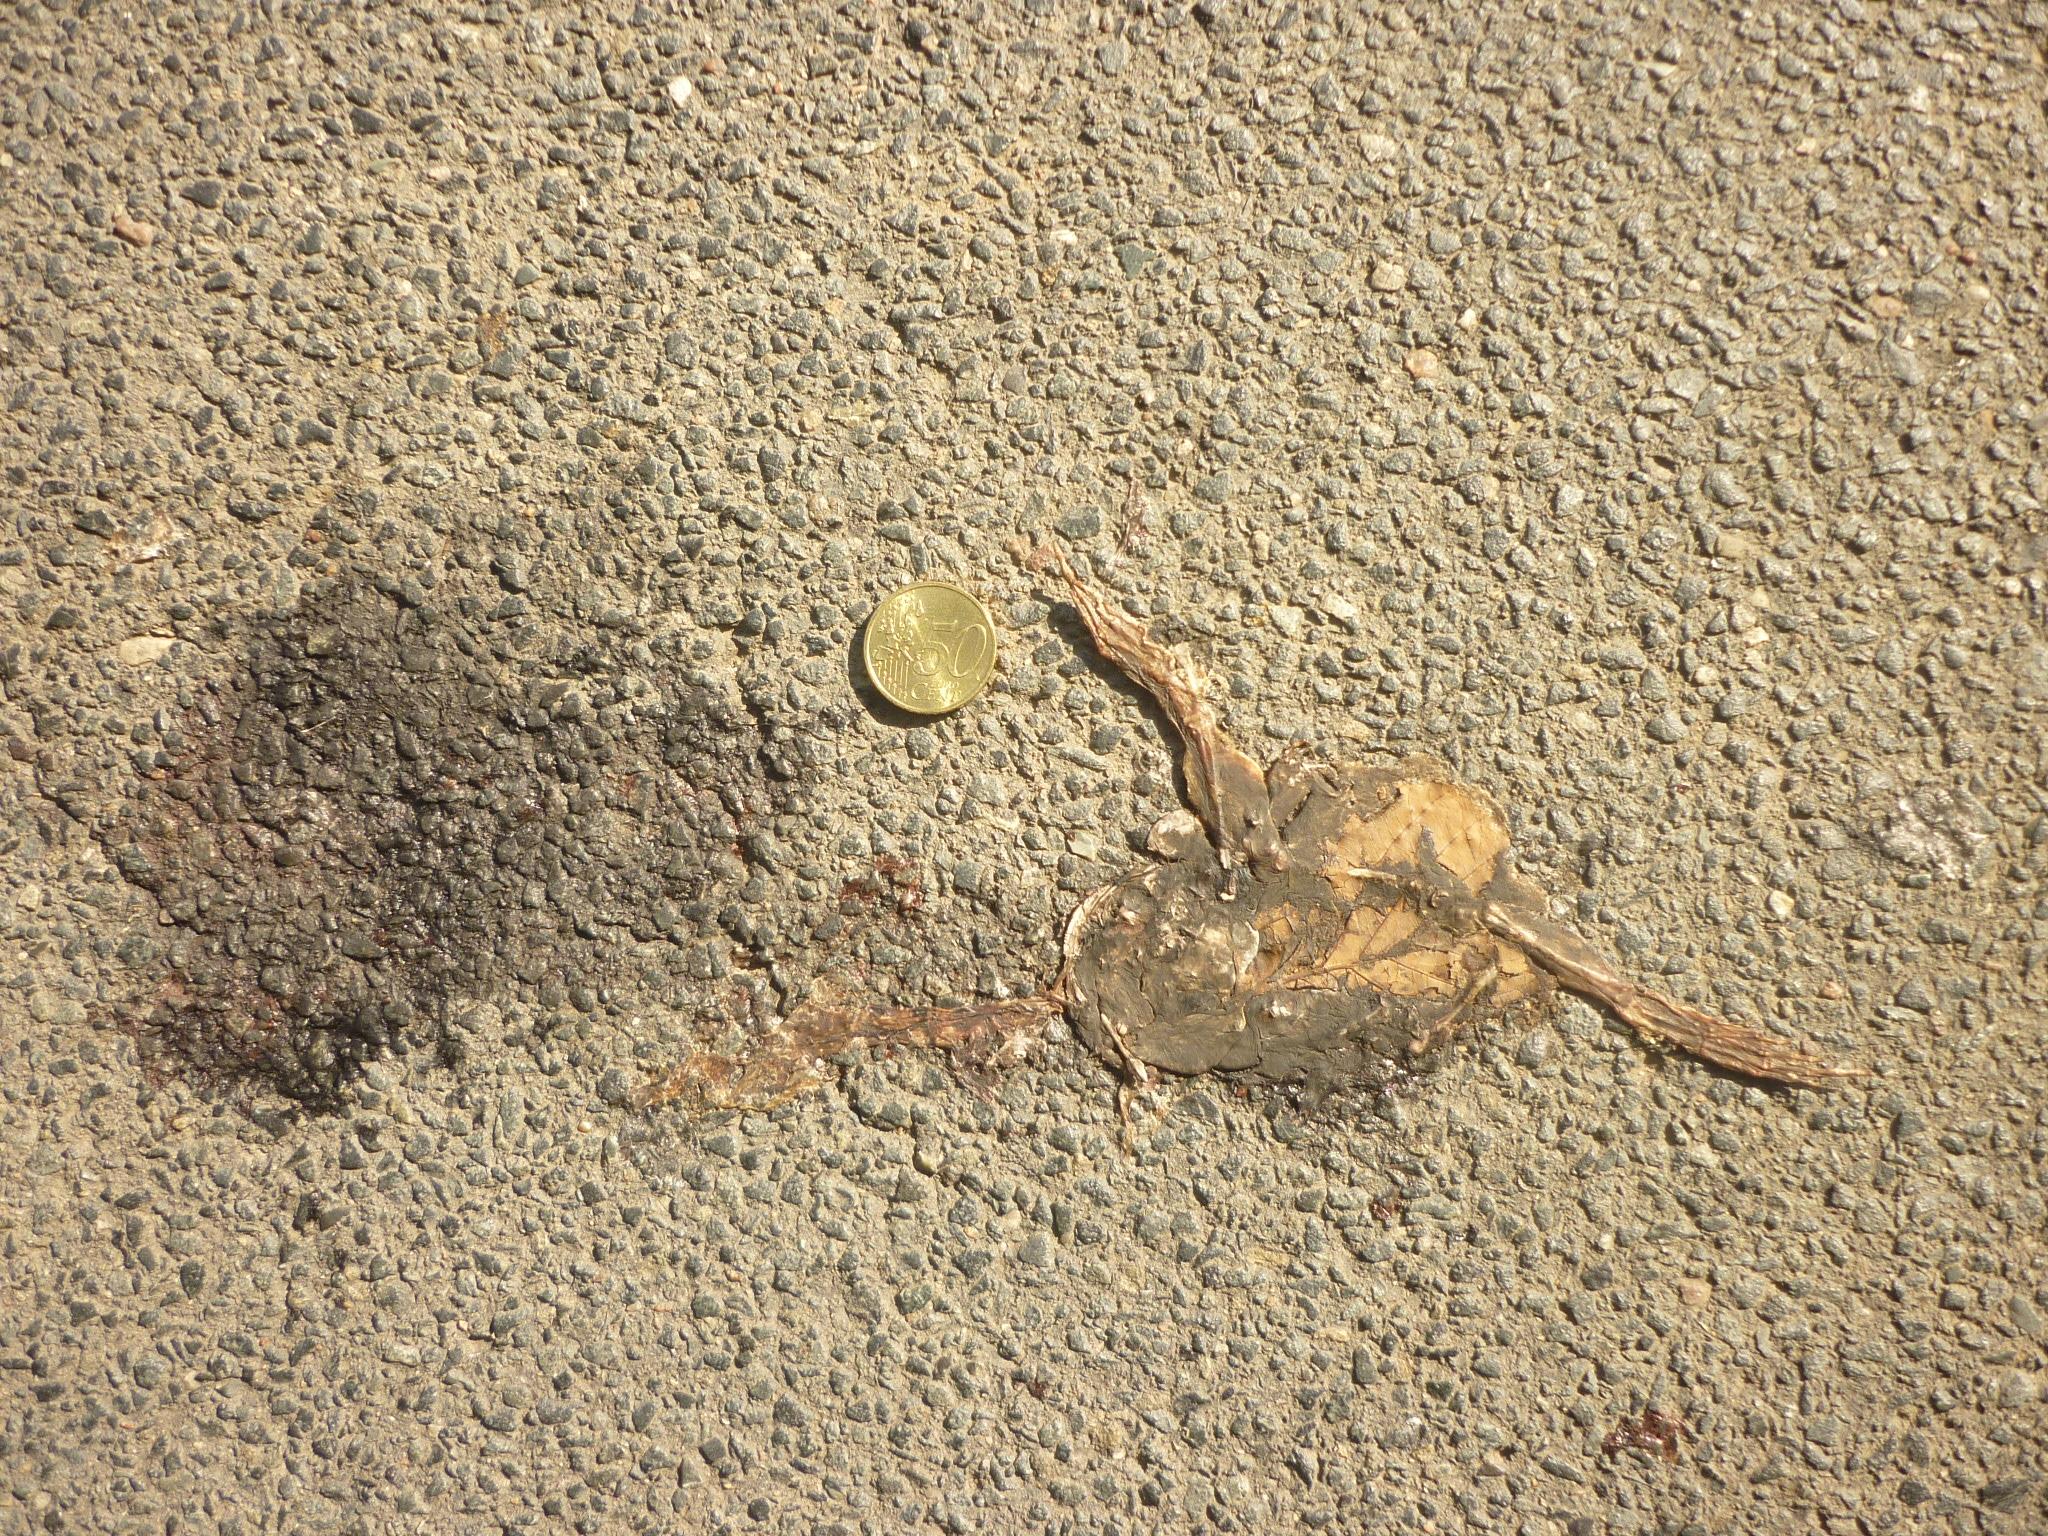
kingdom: Animalia
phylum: Chordata
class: Amphibia
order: Anura
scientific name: Anura
